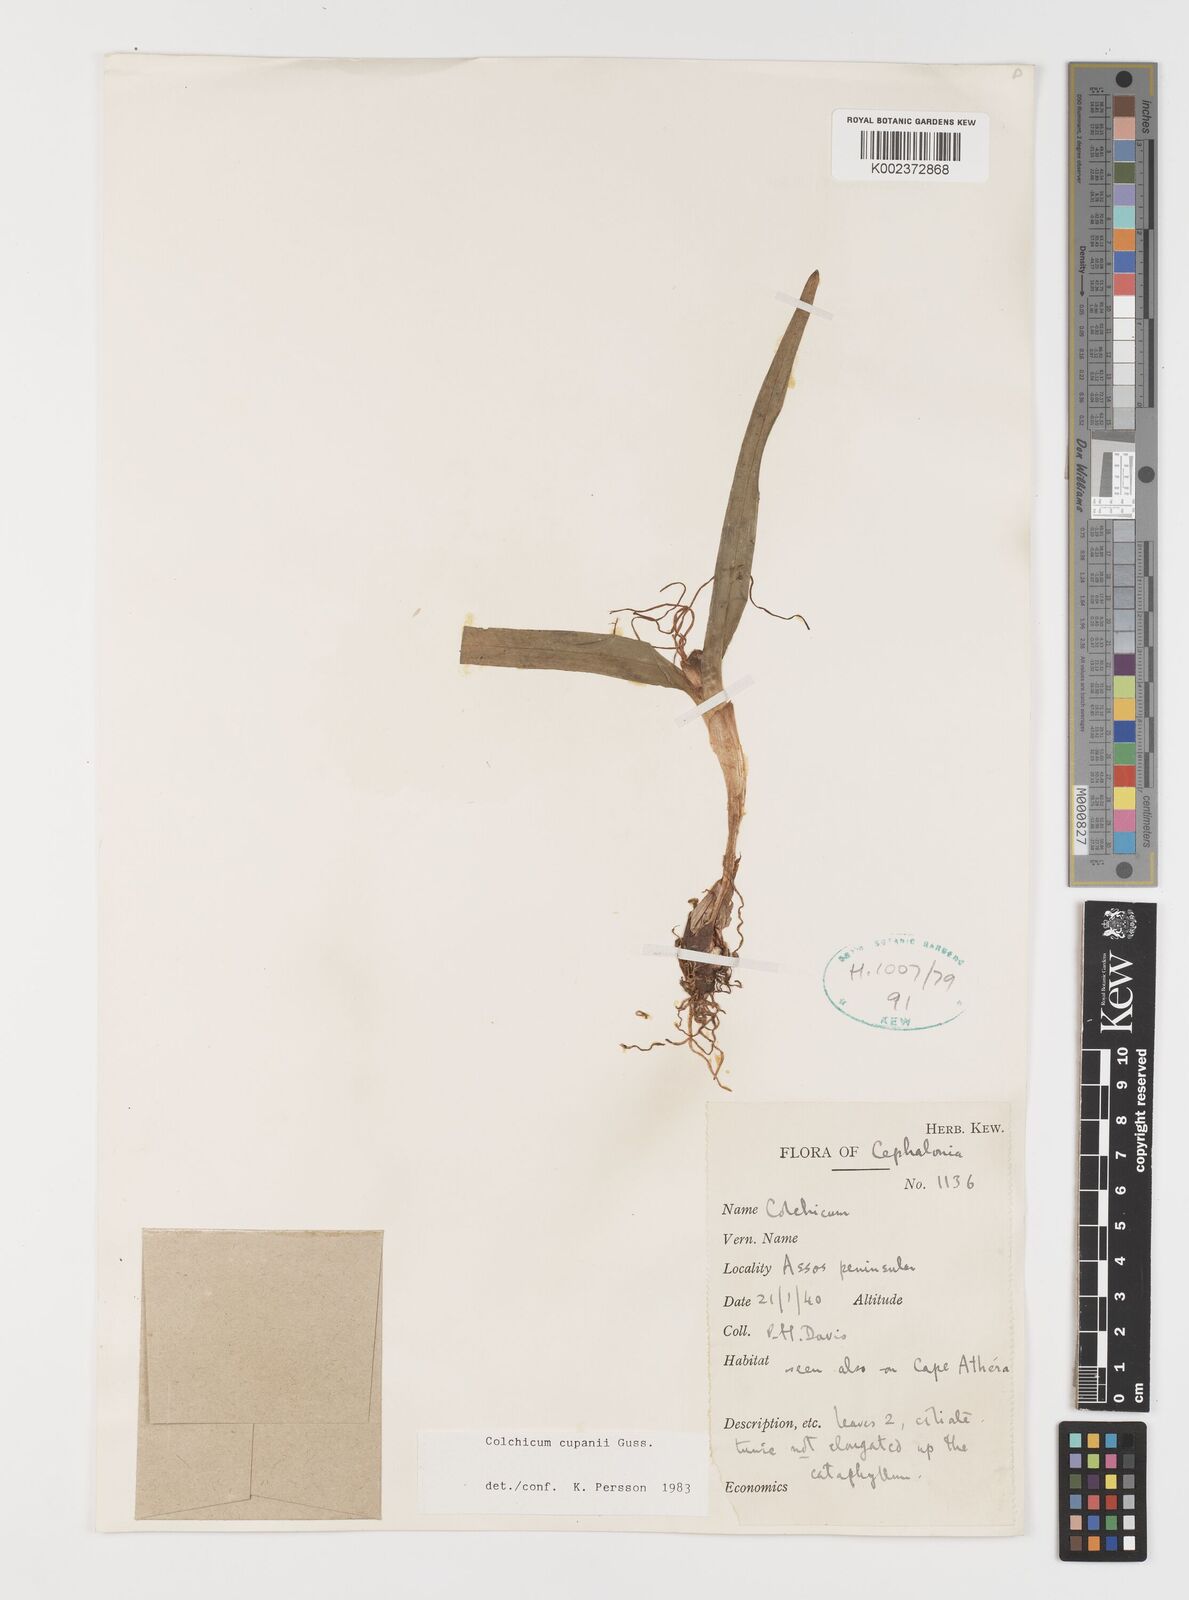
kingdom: Plantae
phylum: Tracheophyta
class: Liliopsida
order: Liliales
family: Colchicaceae
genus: Colchicum
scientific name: Colchicum cupanii
